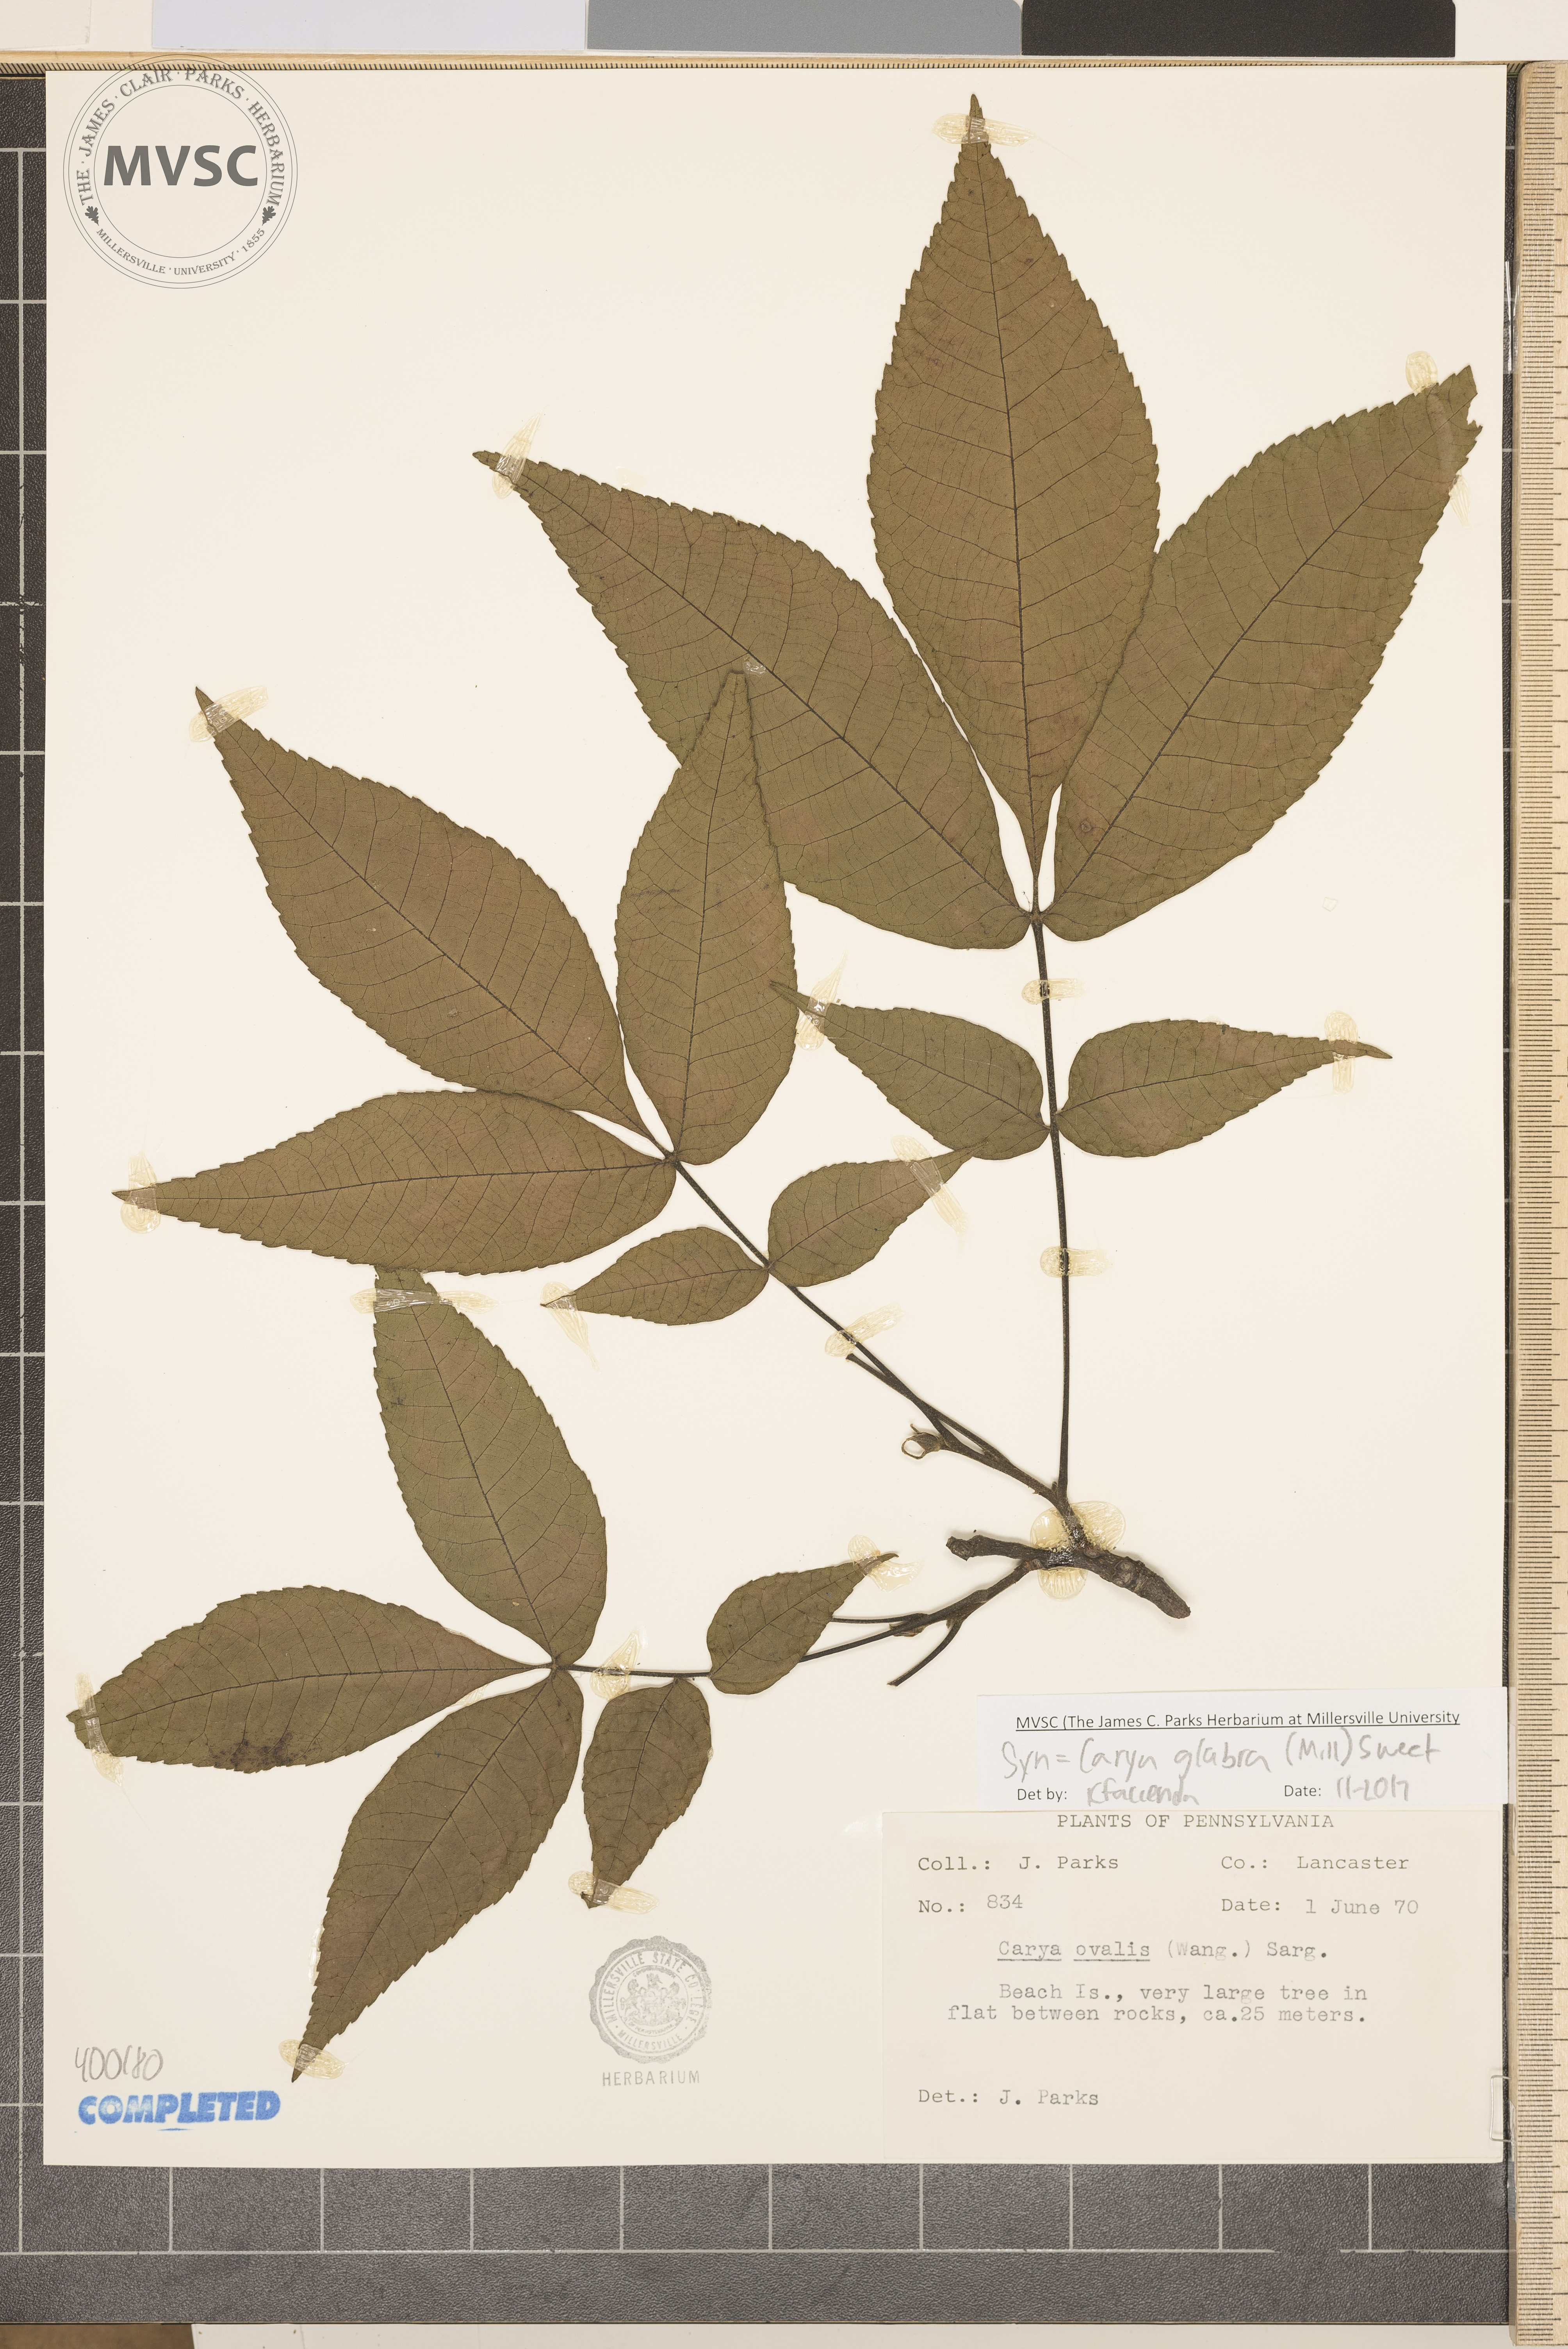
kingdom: Plantae
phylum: Tracheophyta
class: Magnoliopsida
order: Fagales
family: Juglandaceae
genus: Carya
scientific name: Carya glabra
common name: red hickory
